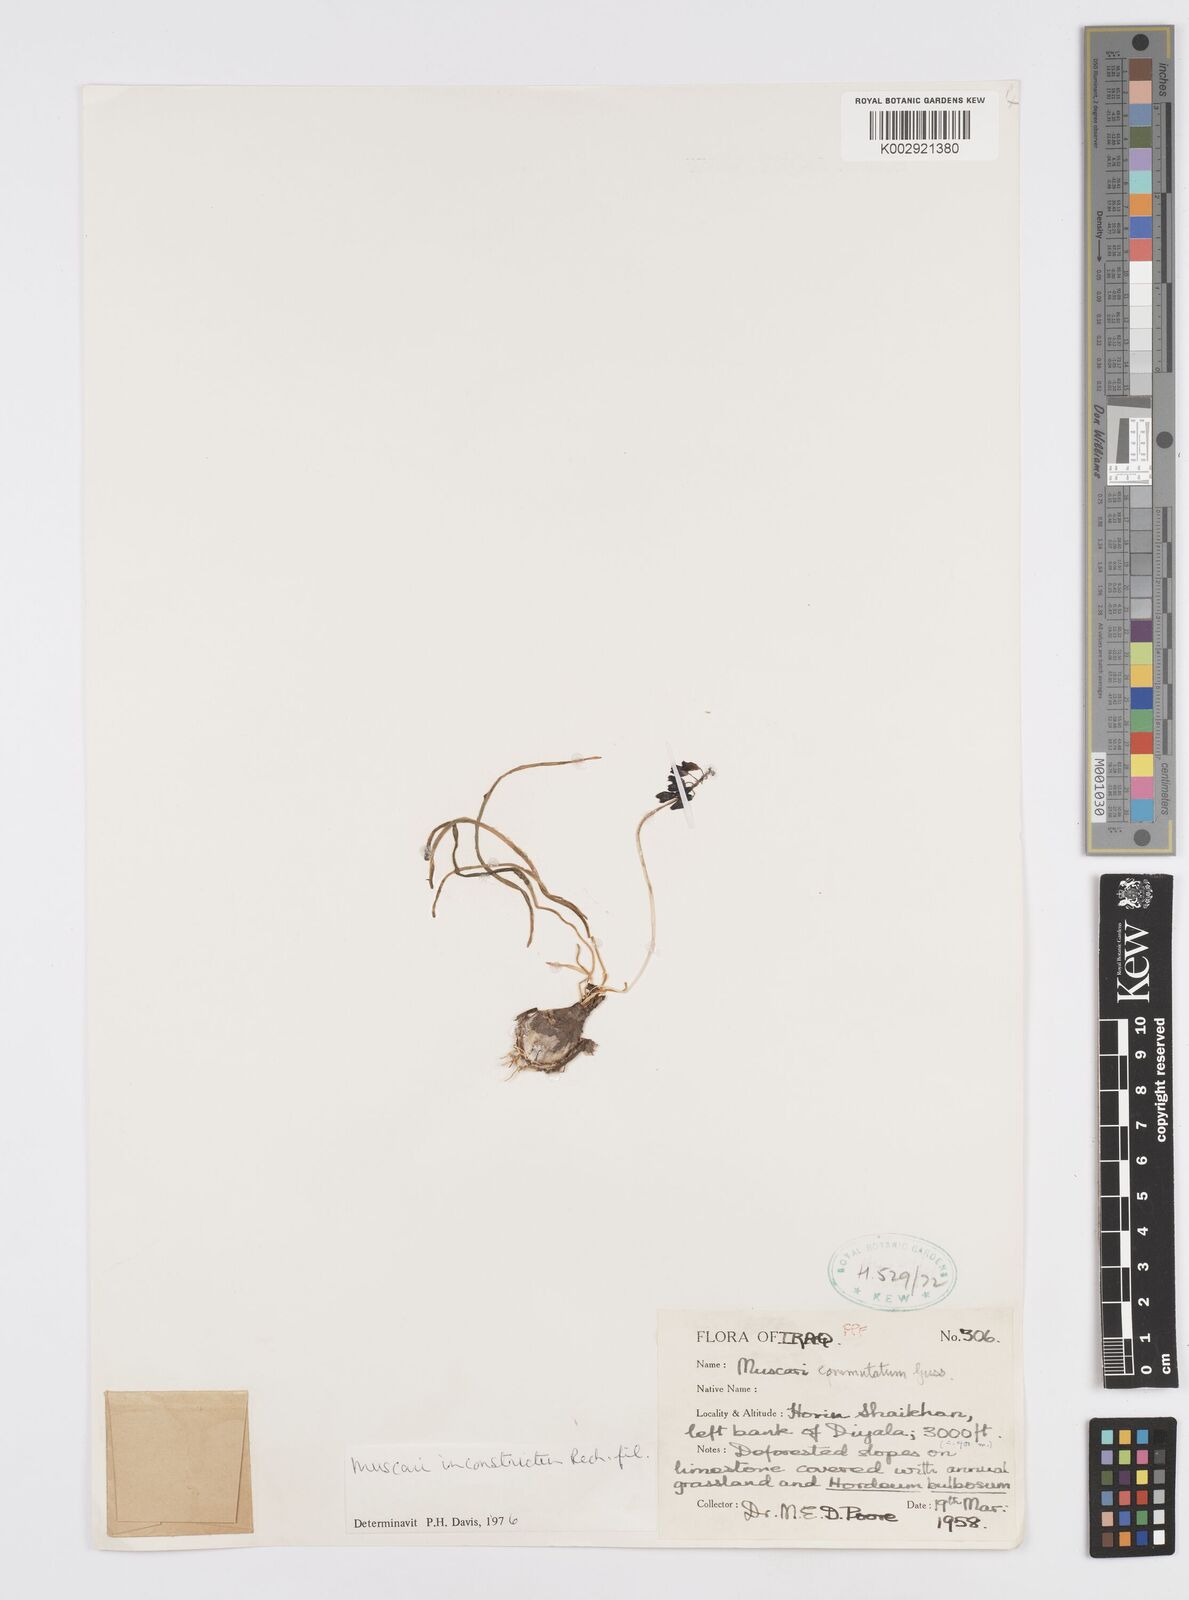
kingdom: Plantae
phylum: Tracheophyta
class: Liliopsida
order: Asparagales
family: Asparagaceae
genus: Muscari
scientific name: Muscari inconstrictum
